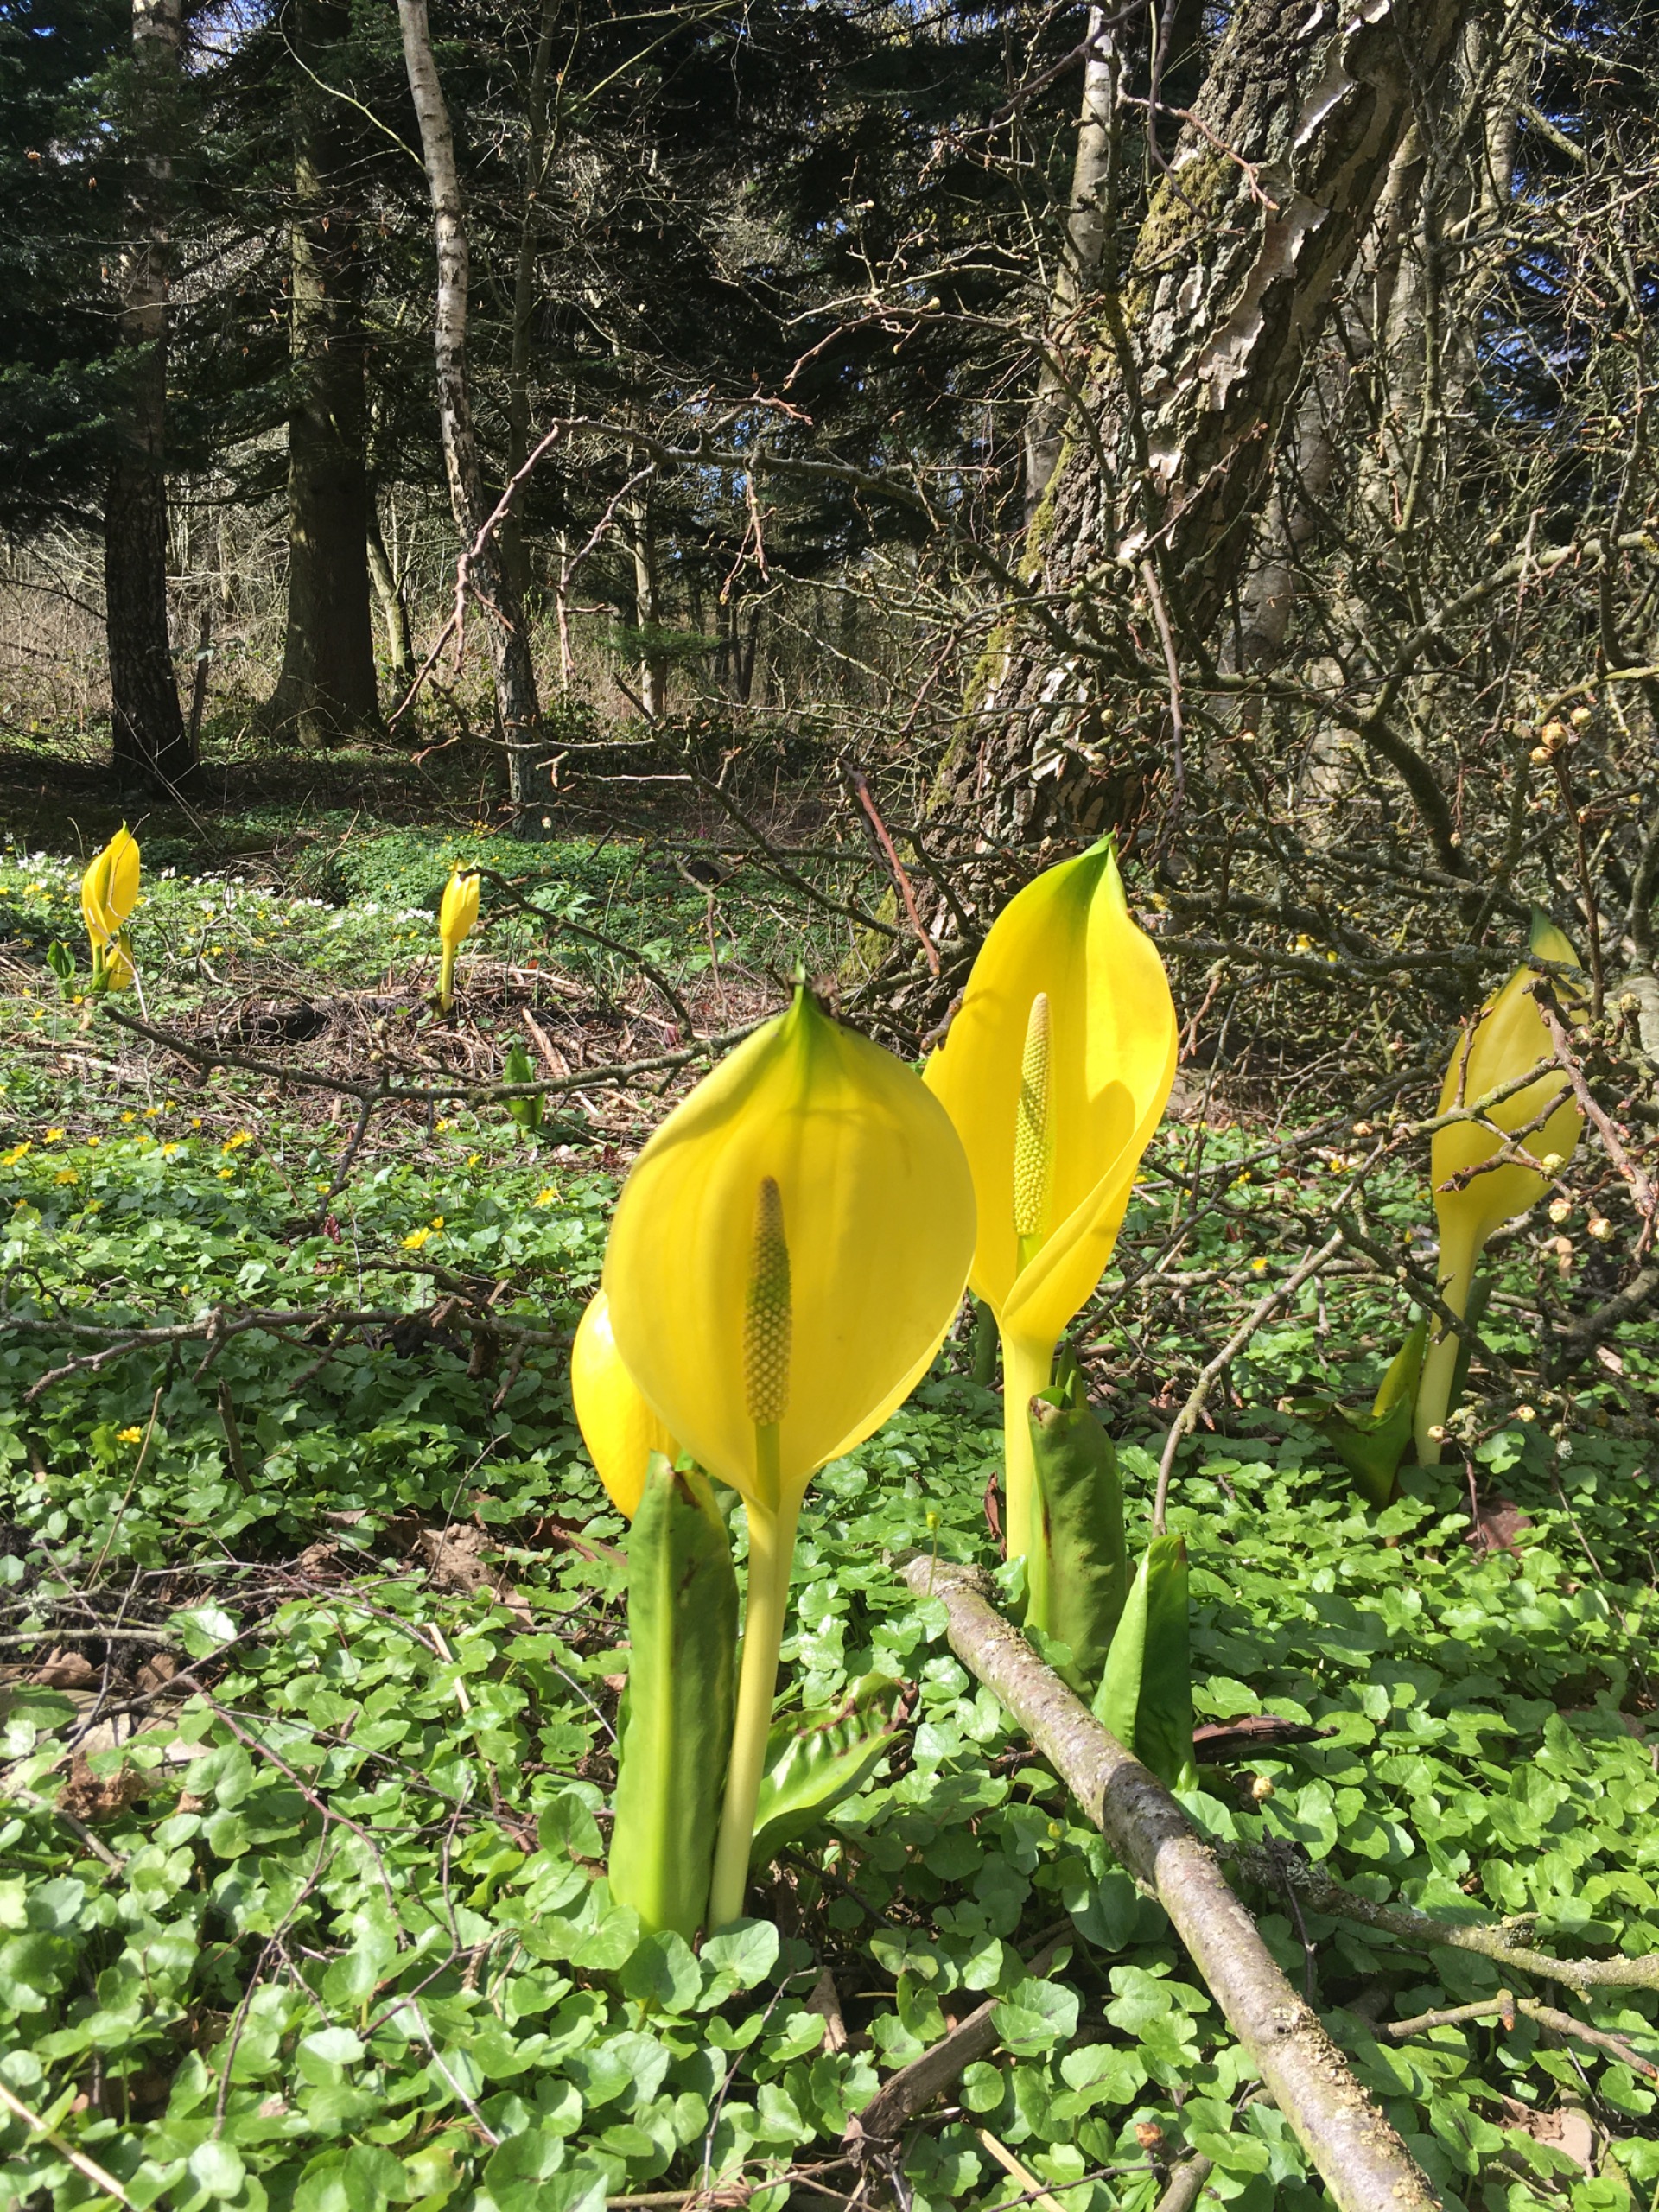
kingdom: Plantae
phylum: Tracheophyta
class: Liliopsida
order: Alismatales
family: Araceae
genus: Lysichiton
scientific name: Lysichiton americanus
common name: Gul kæmpekalla
